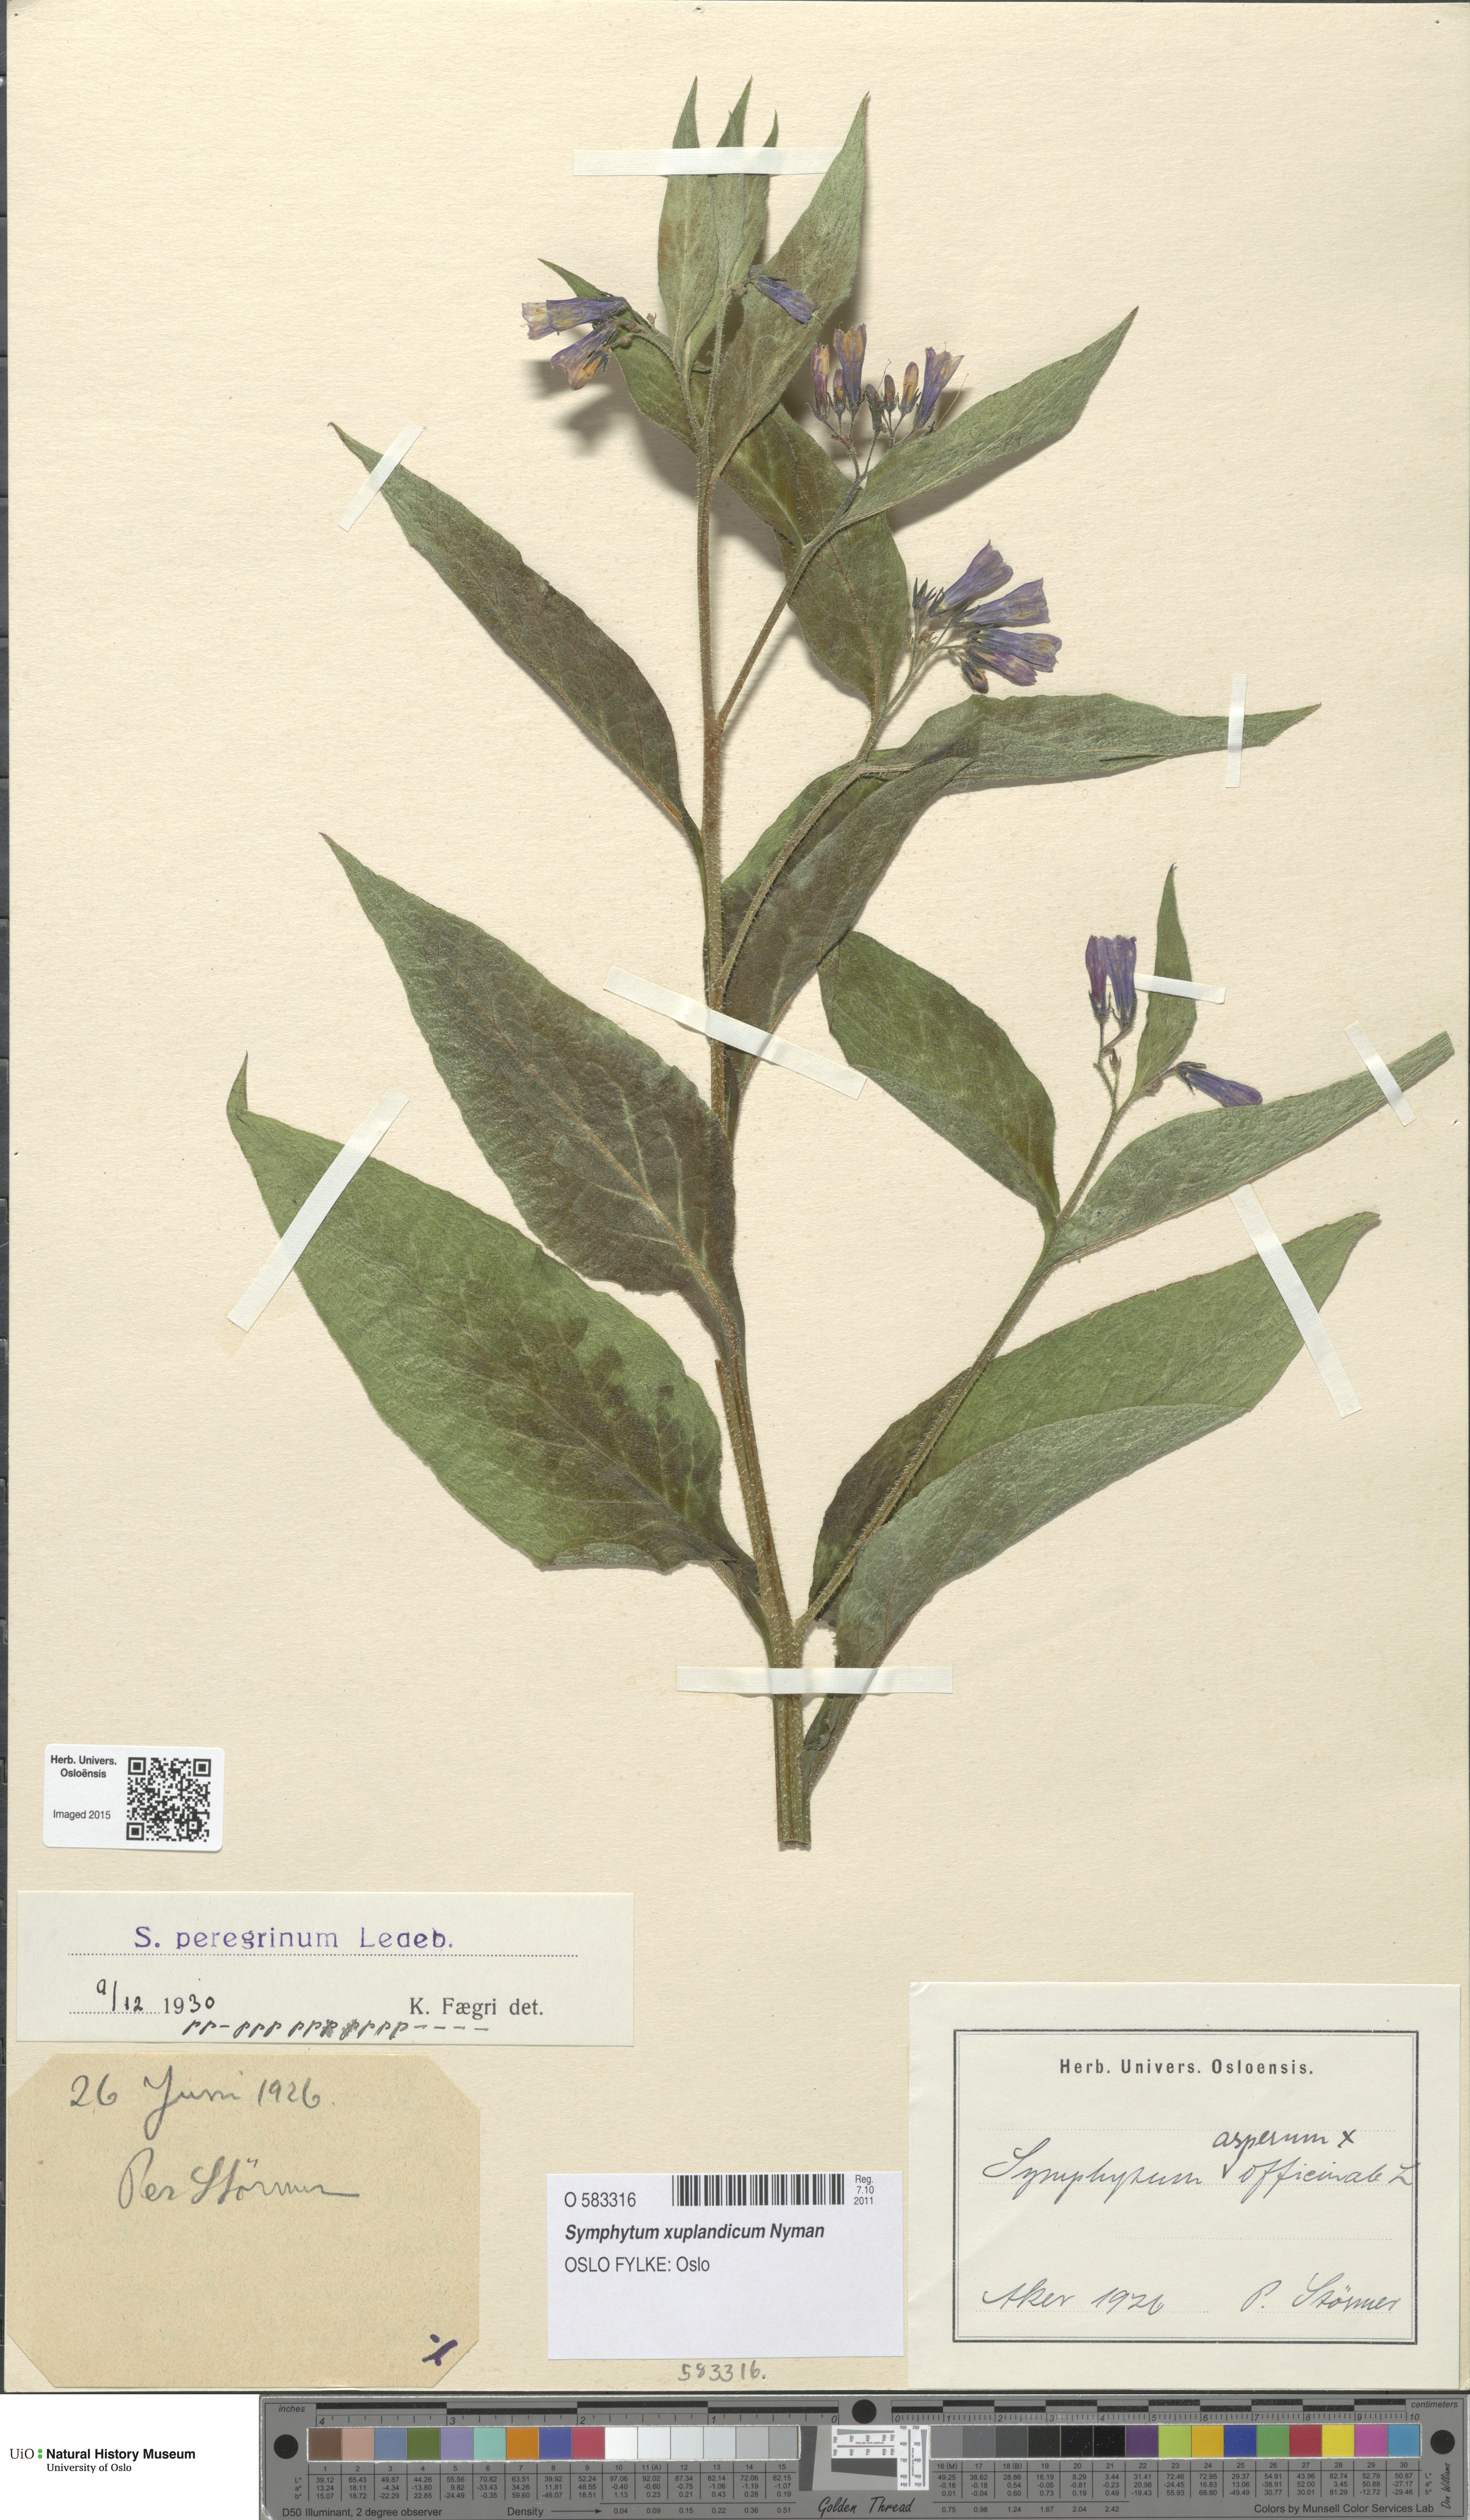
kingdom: Plantae
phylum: Tracheophyta
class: Magnoliopsida
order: Boraginales
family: Boraginaceae
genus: Symphytum
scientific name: Symphytum uplandicum
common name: Russian comfrey
